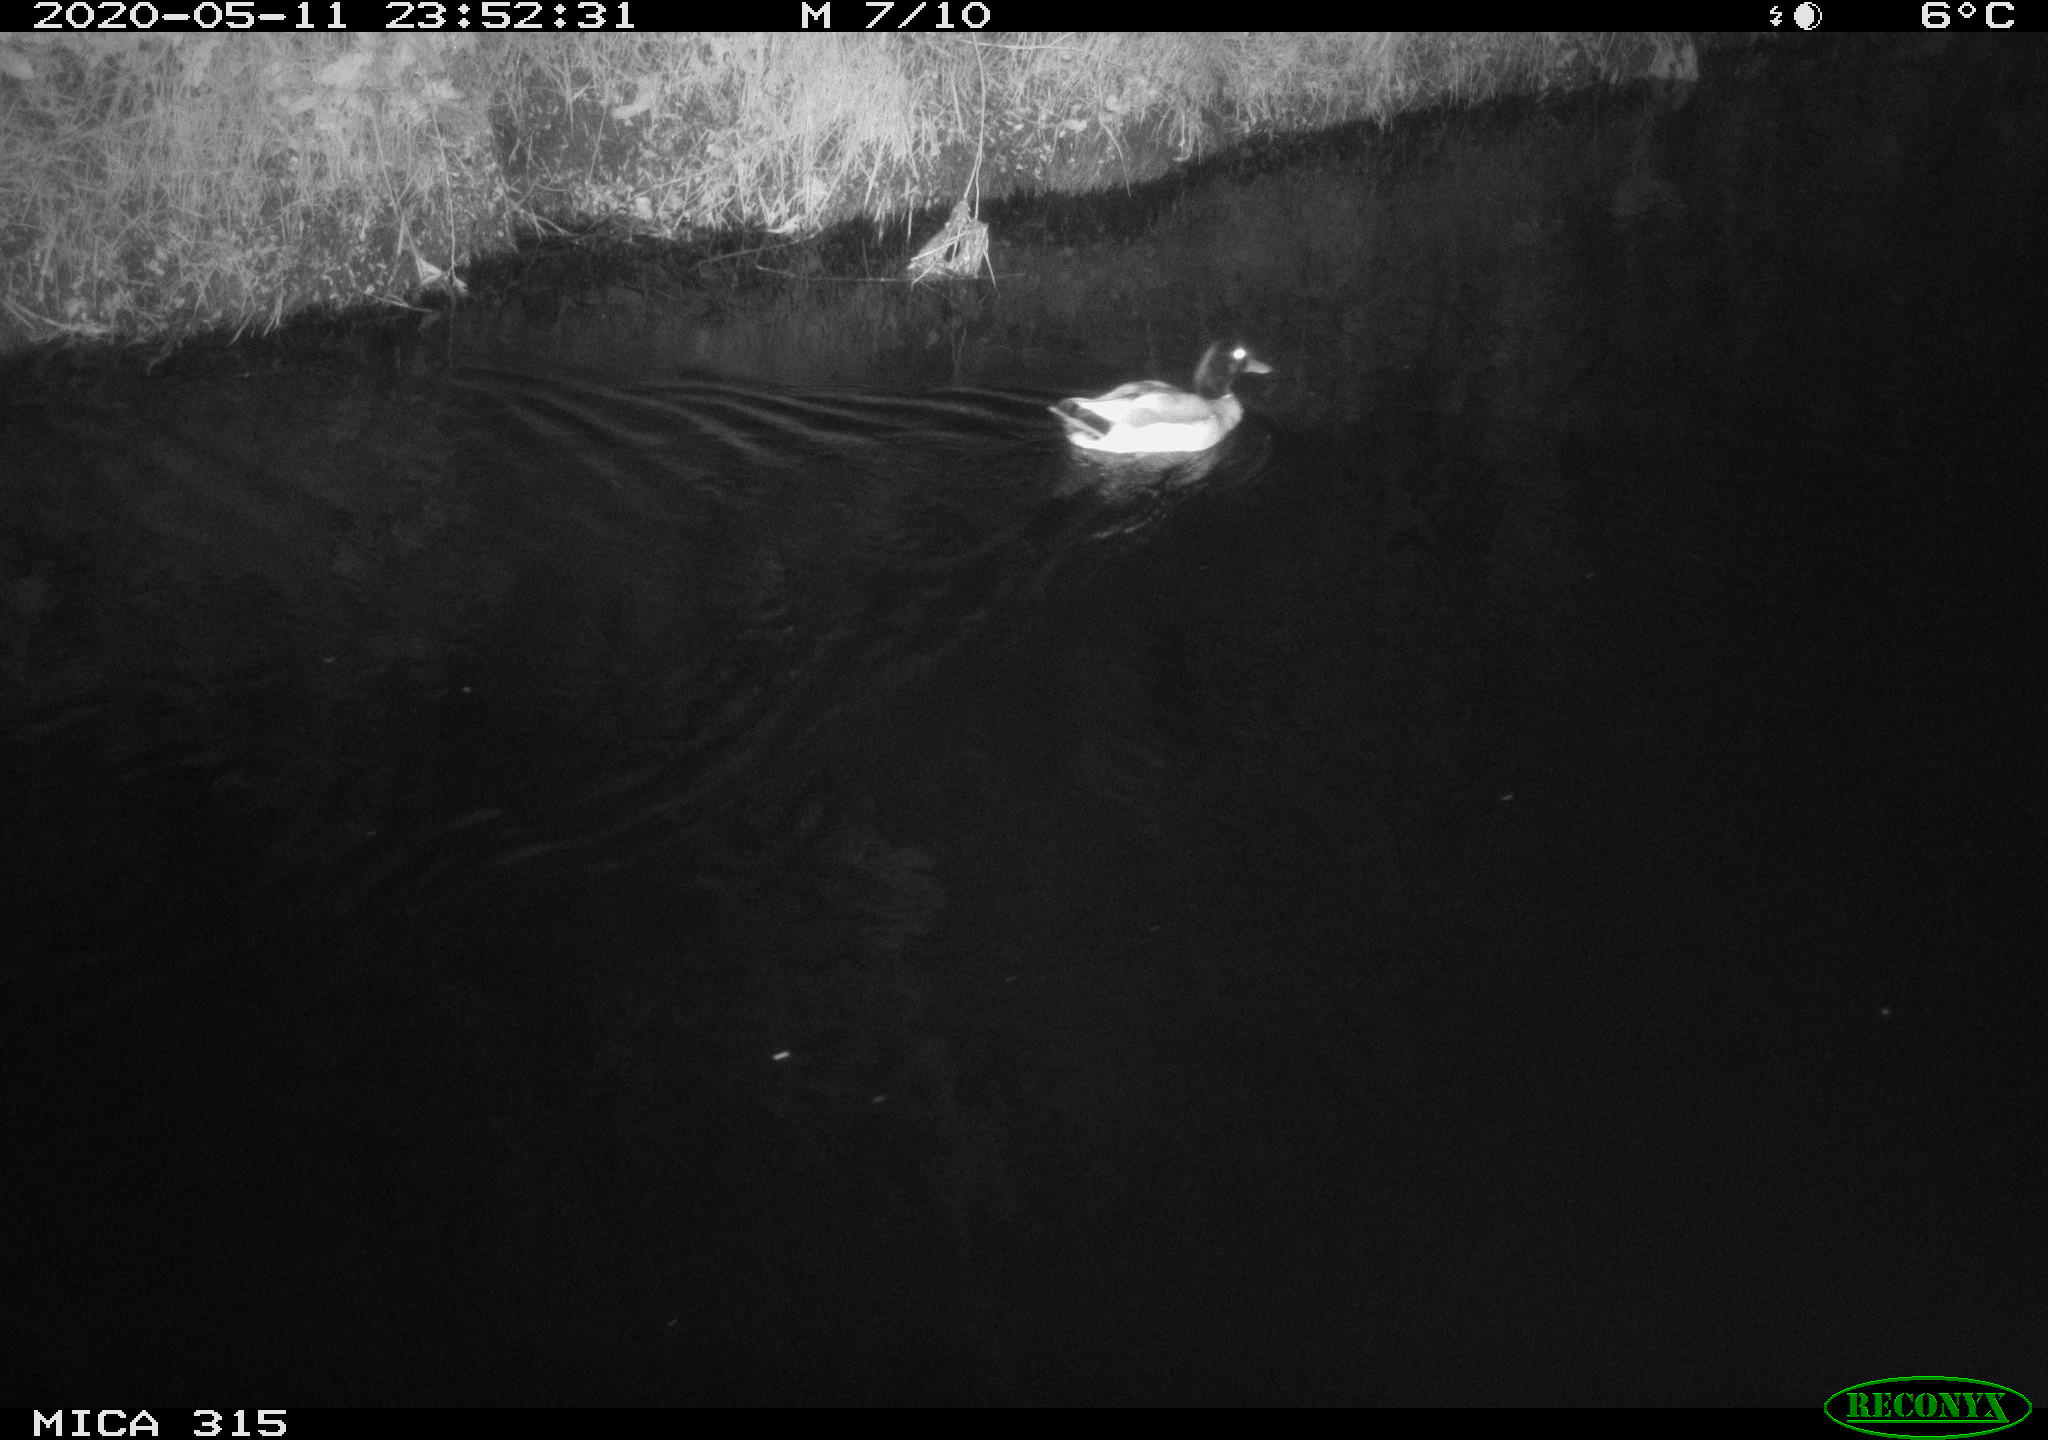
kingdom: Animalia
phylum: Chordata
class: Aves
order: Anseriformes
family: Anatidae
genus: Anas
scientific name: Anas platyrhynchos
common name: Mallard
